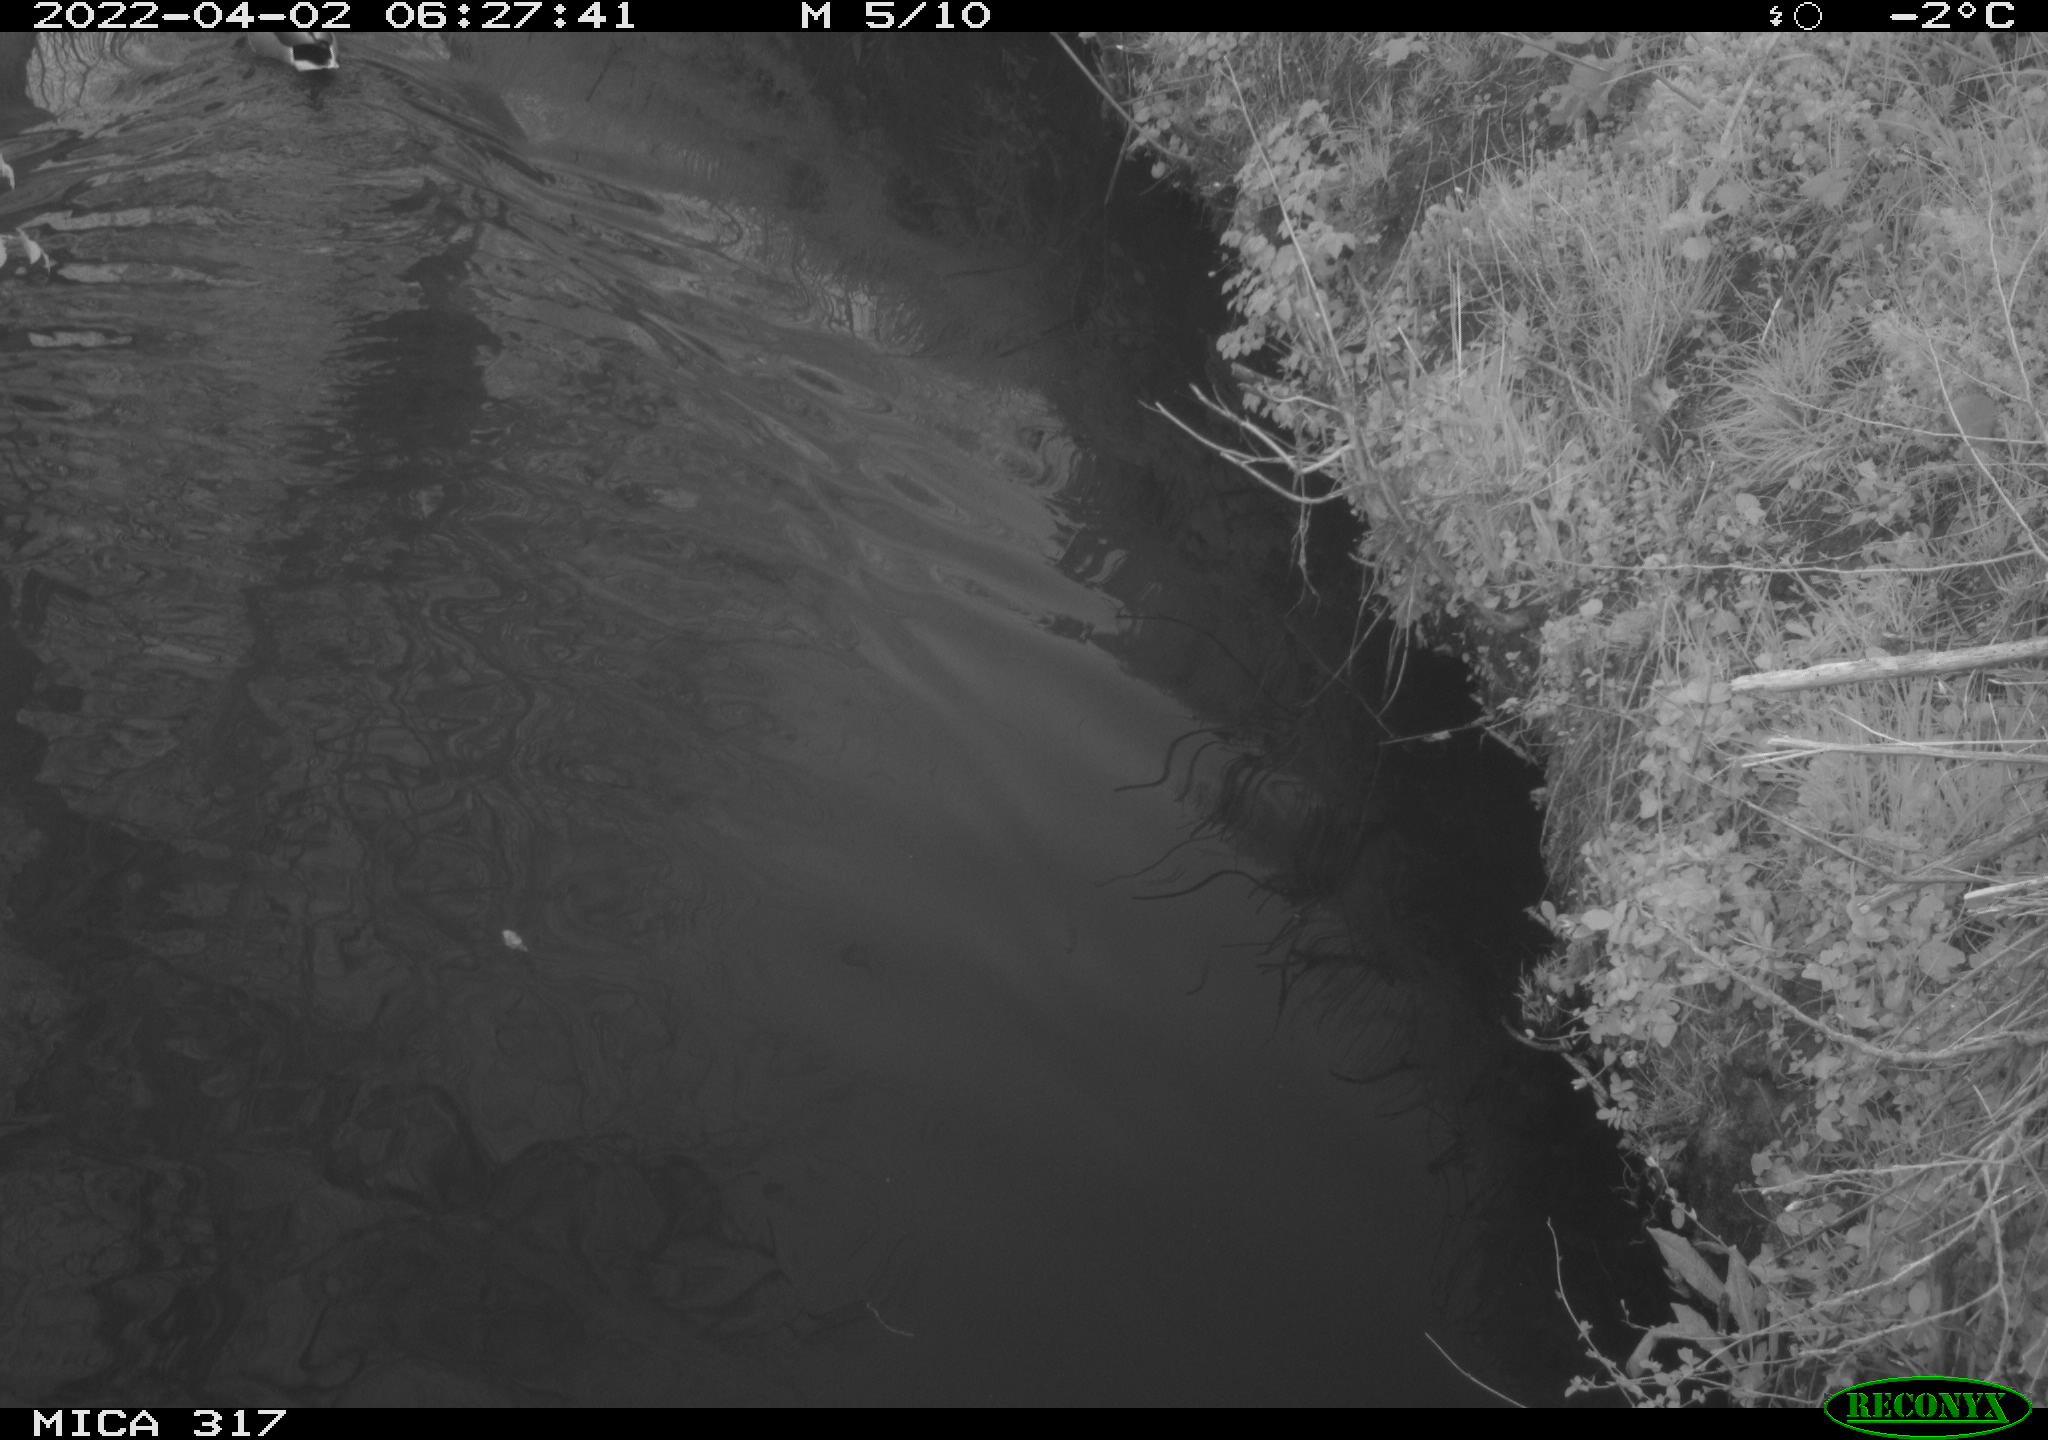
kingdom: Animalia
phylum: Chordata
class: Aves
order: Anseriformes
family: Anatidae
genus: Anas
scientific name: Anas platyrhynchos
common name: Mallard
